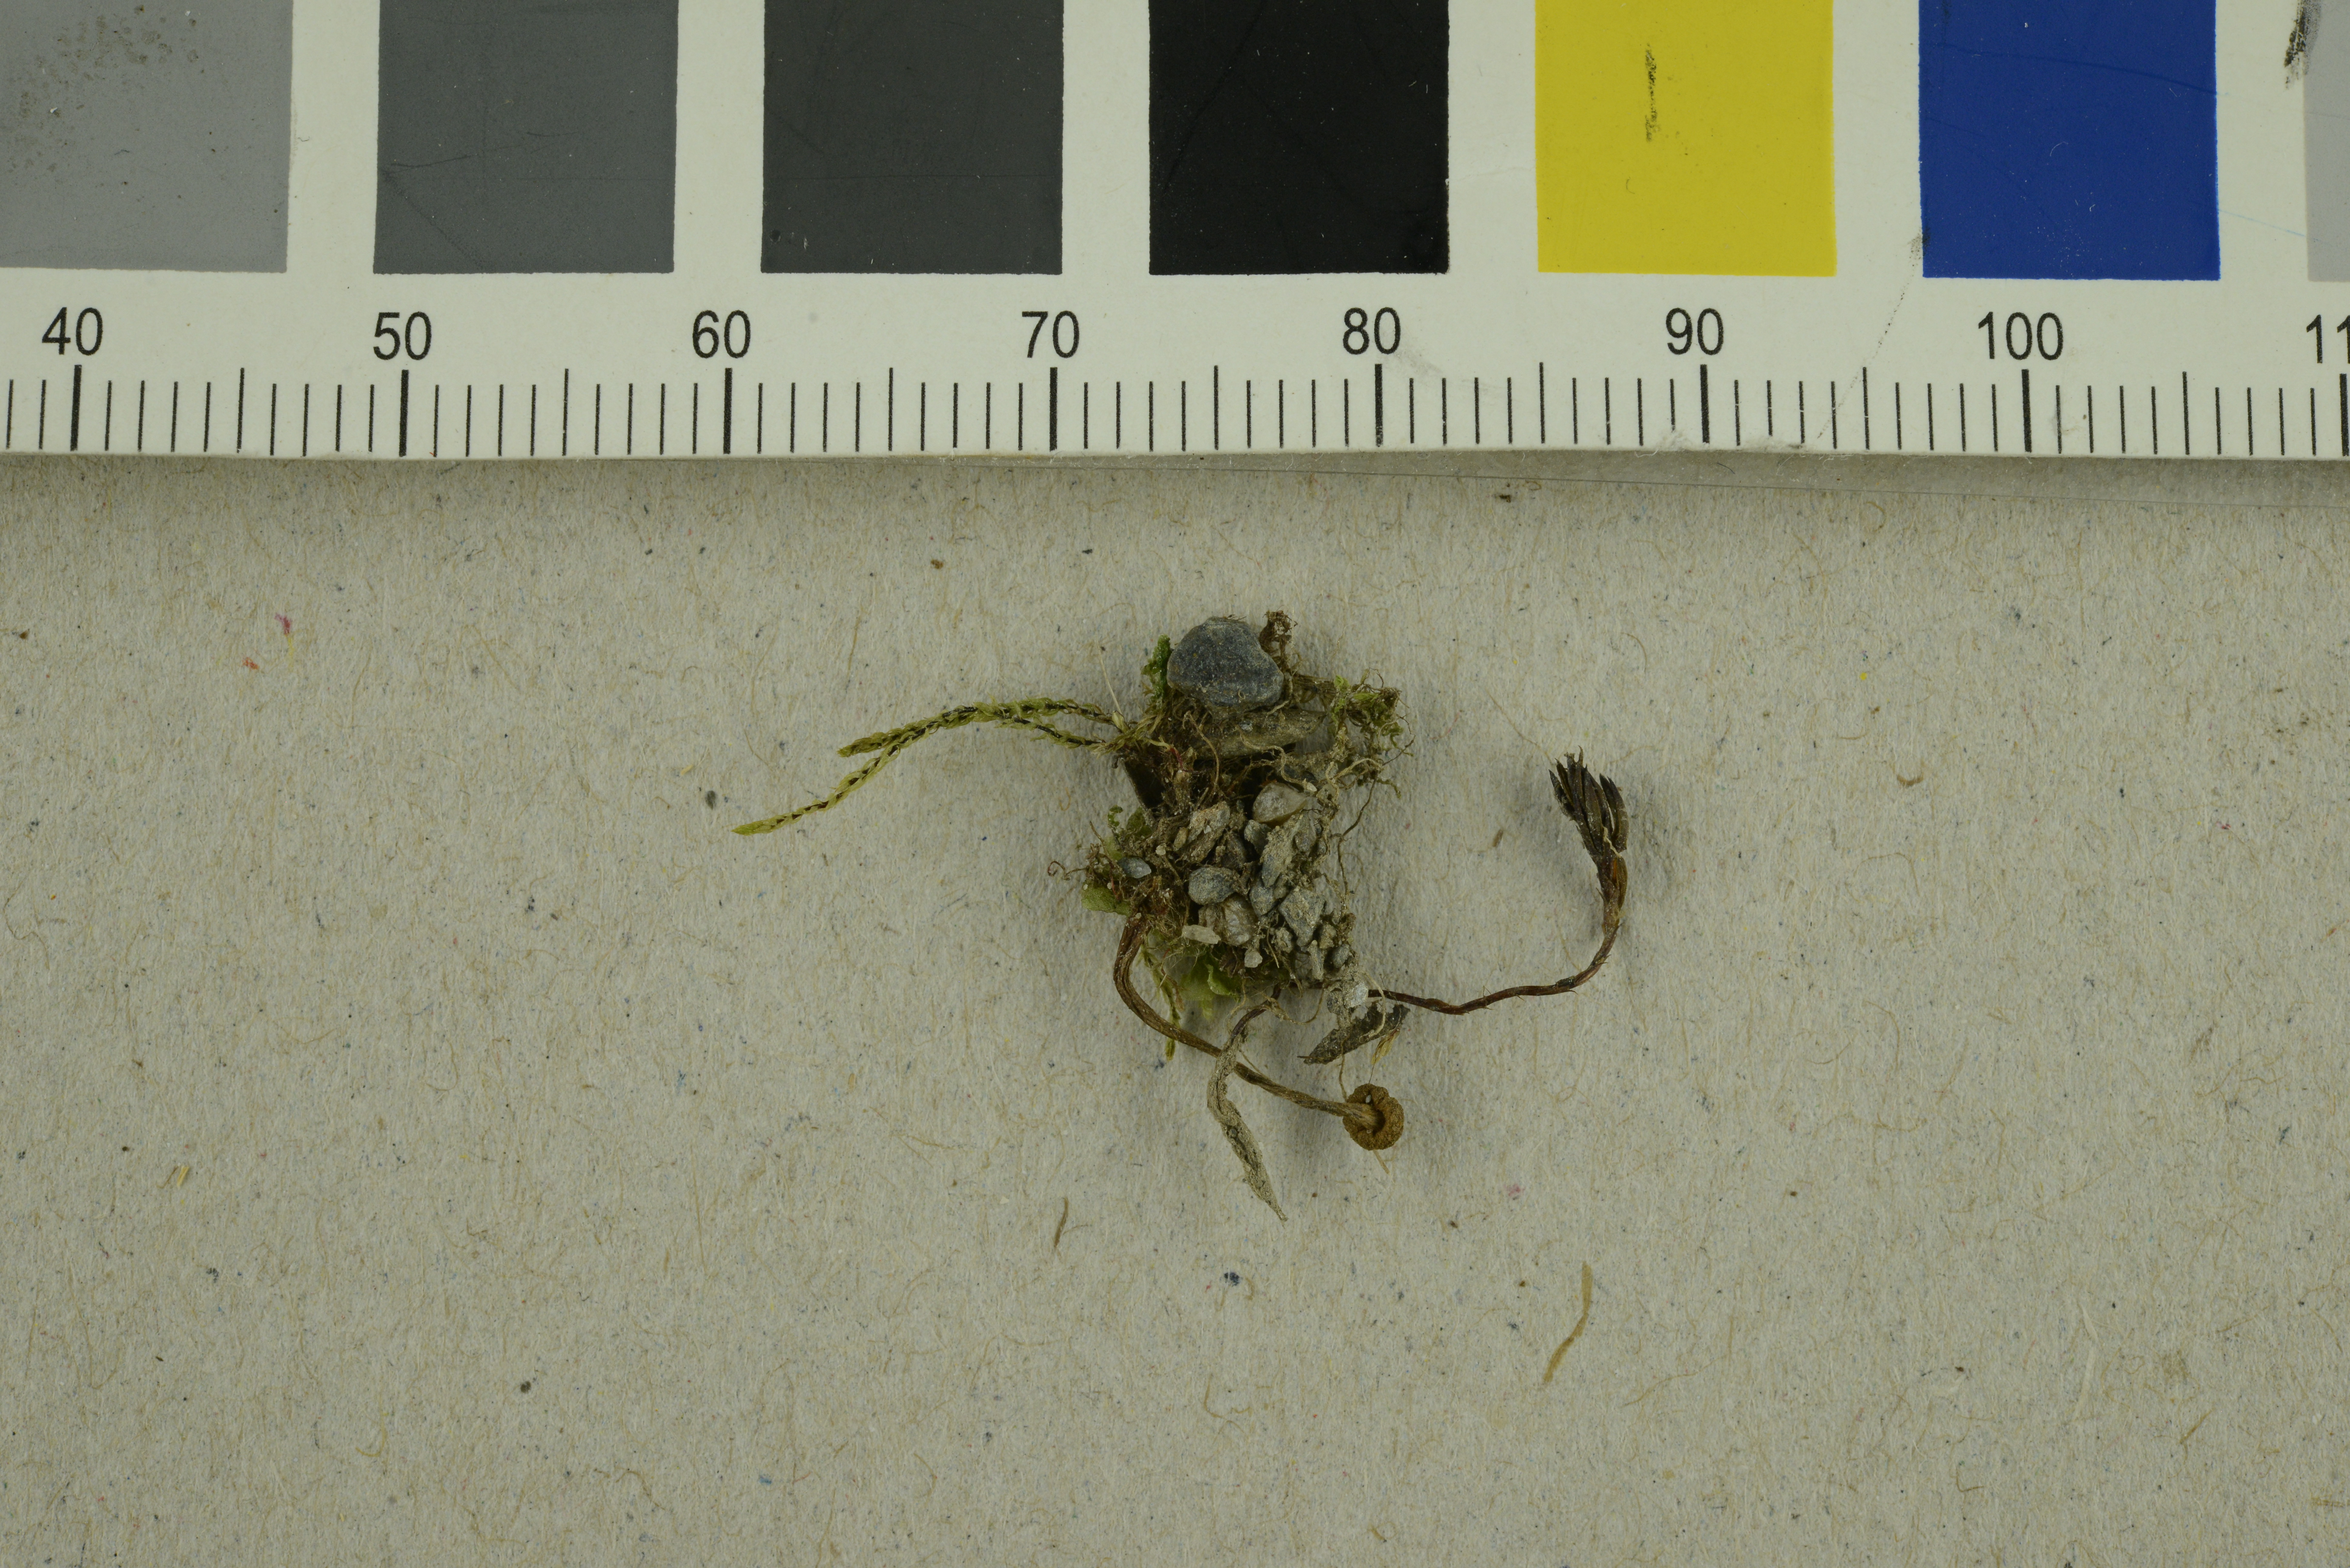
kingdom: Fungi
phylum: Basidiomycota
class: Agaricomycetes
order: Agaricales
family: Cortinariaceae
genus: Cortinarius
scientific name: Cortinarius saniosus
